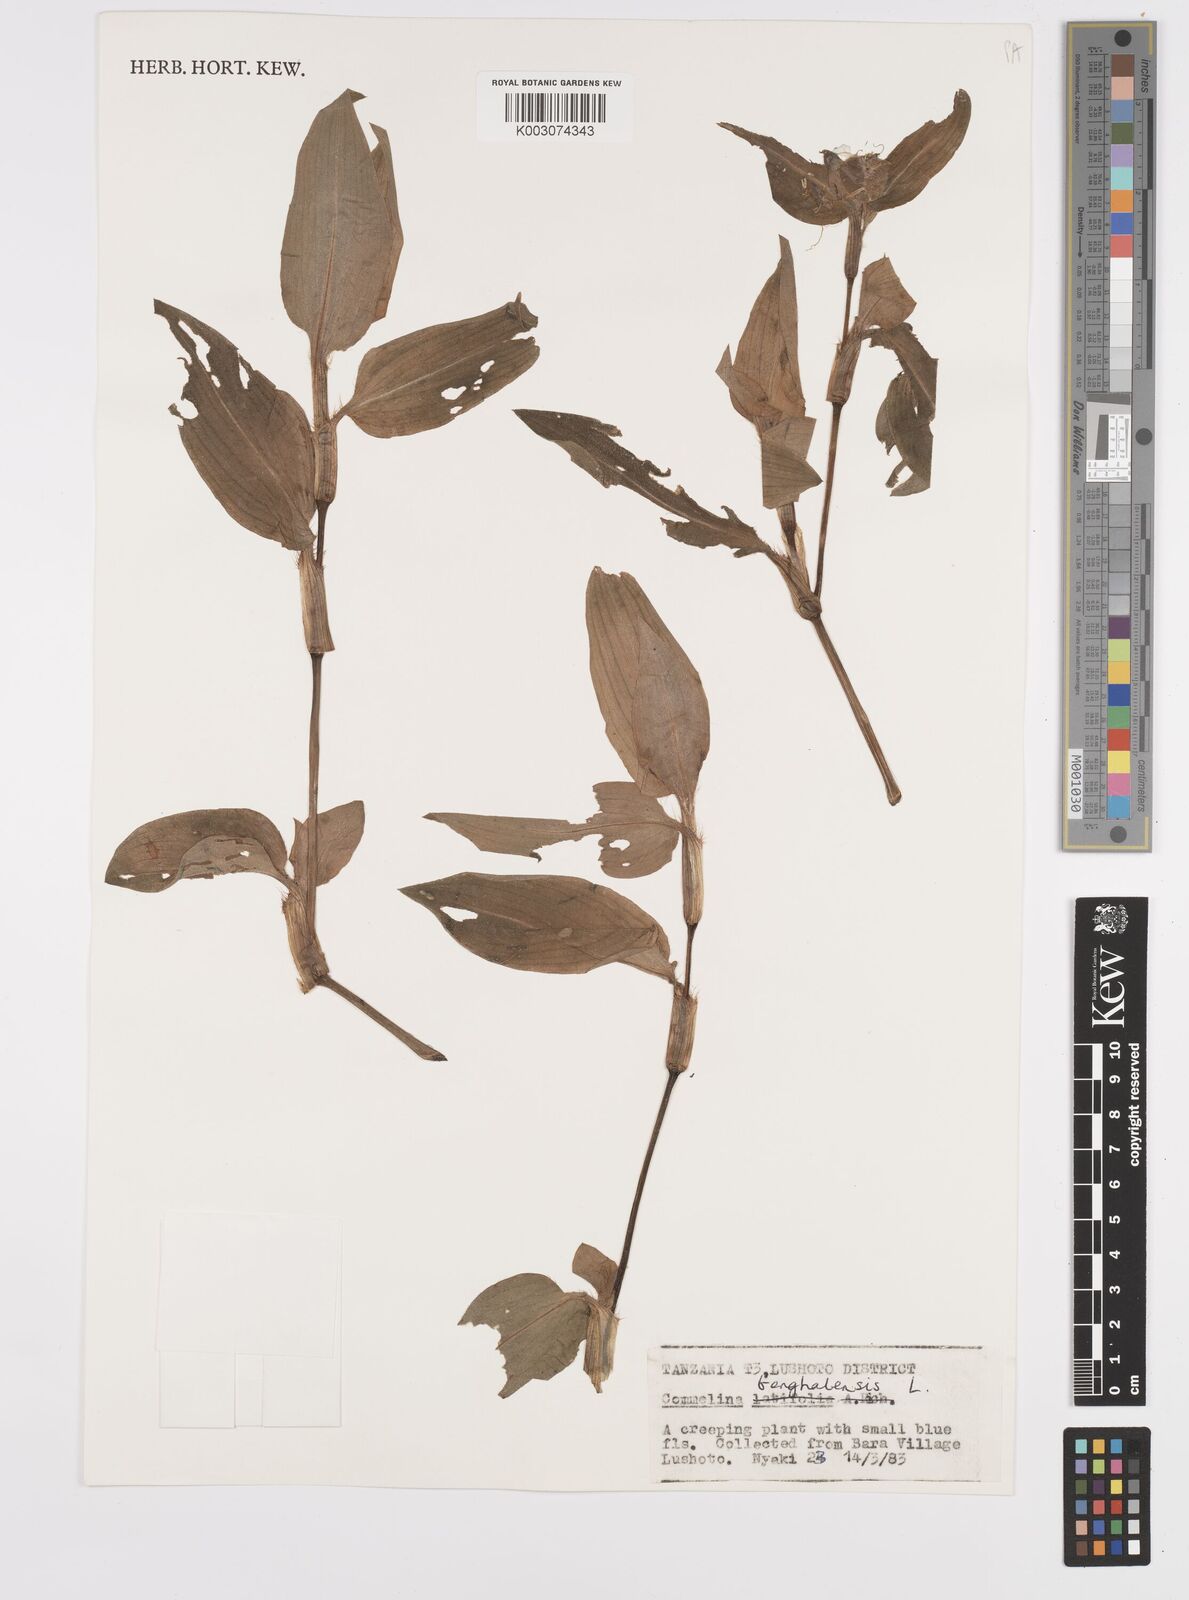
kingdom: Plantae
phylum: Tracheophyta
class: Liliopsida
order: Commelinales
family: Commelinaceae
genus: Commelina
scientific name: Commelina benghalensis
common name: Jio
